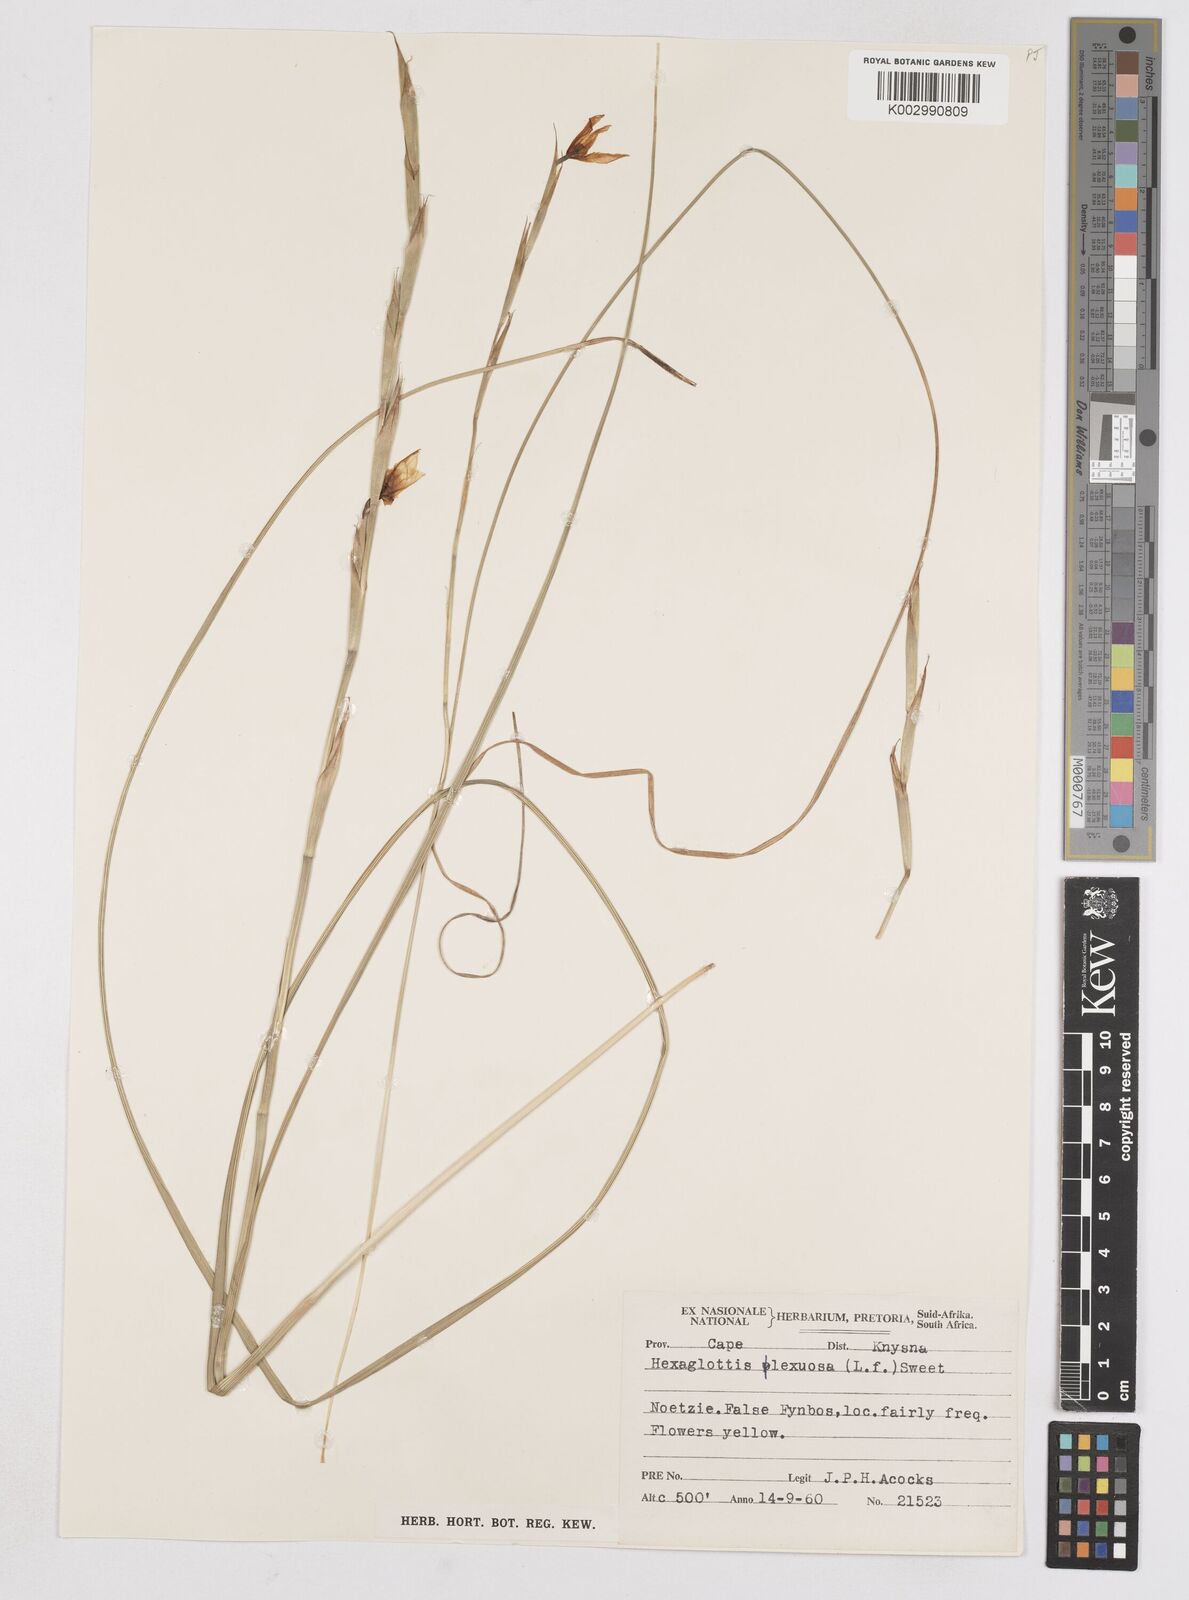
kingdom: Plantae
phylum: Tracheophyta
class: Liliopsida
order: Asparagales
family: Iridaceae
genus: Moraea
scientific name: Moraea lewisiae
